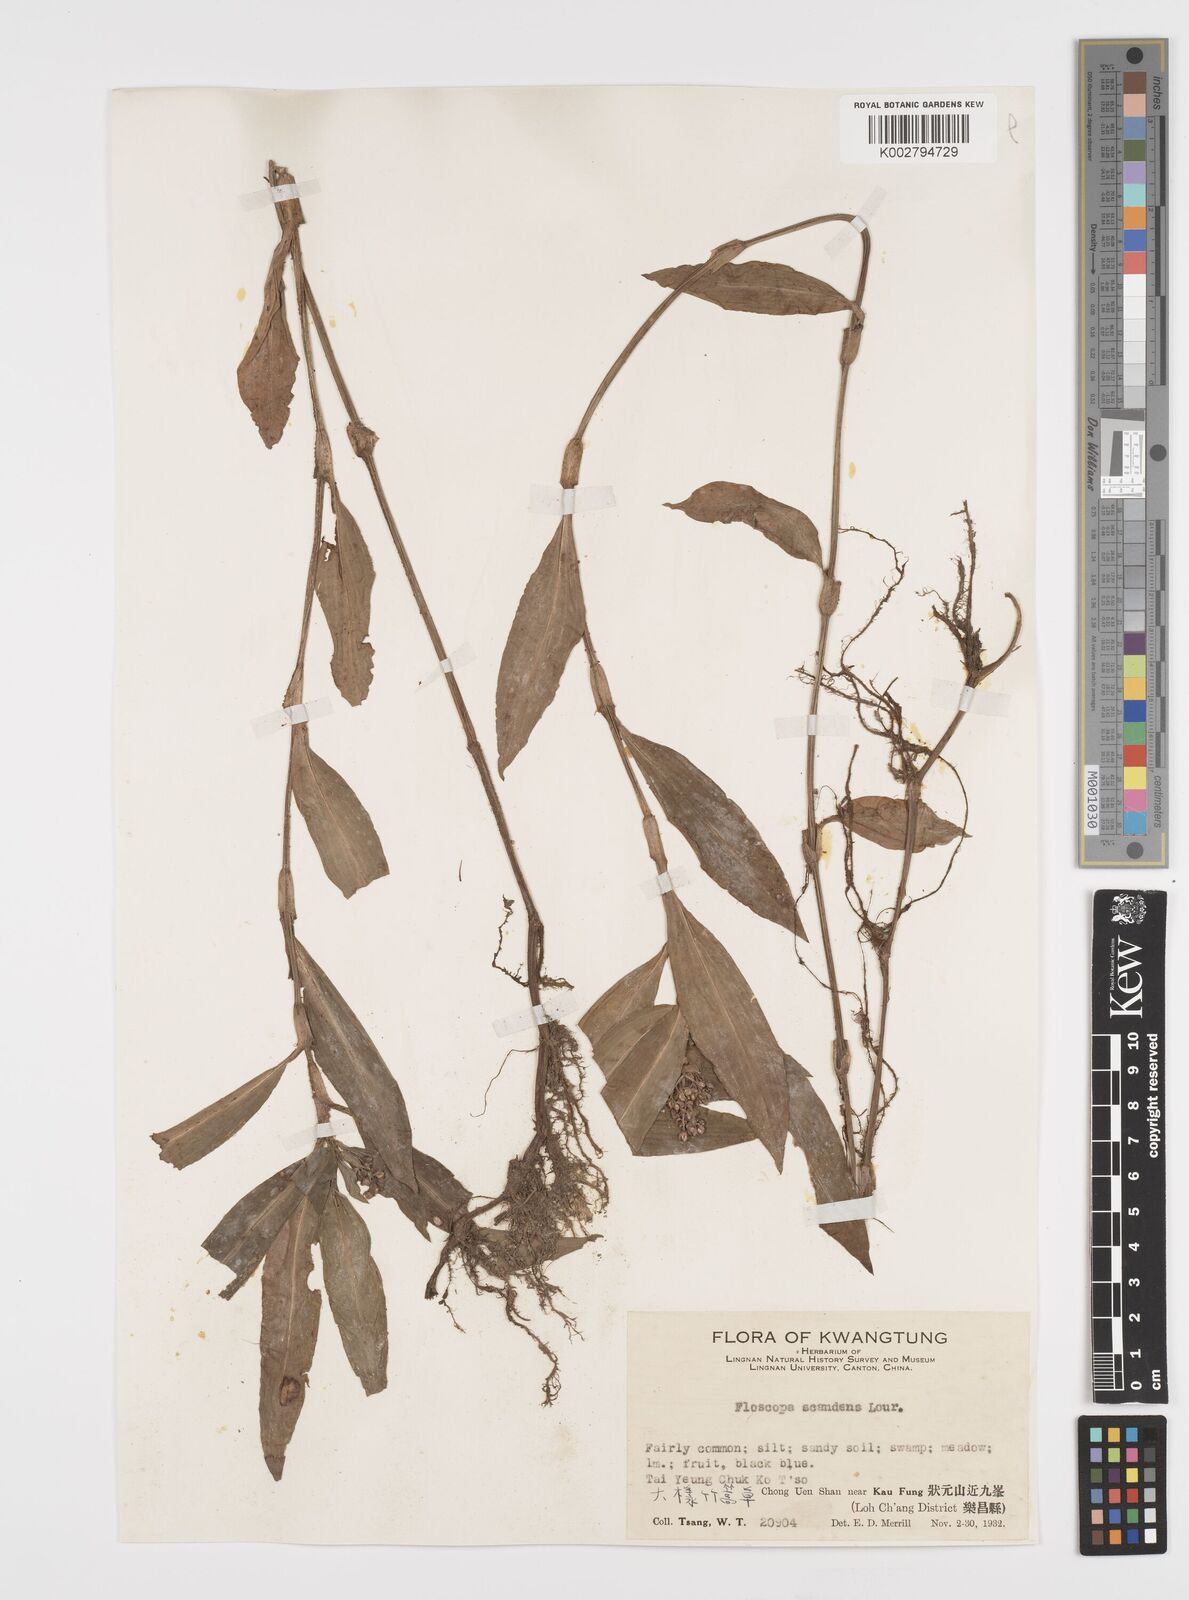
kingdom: Plantae
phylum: Tracheophyta
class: Liliopsida
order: Commelinales
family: Commelinaceae
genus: Floscopa
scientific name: Floscopa scandens
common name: Climbing flower cup
